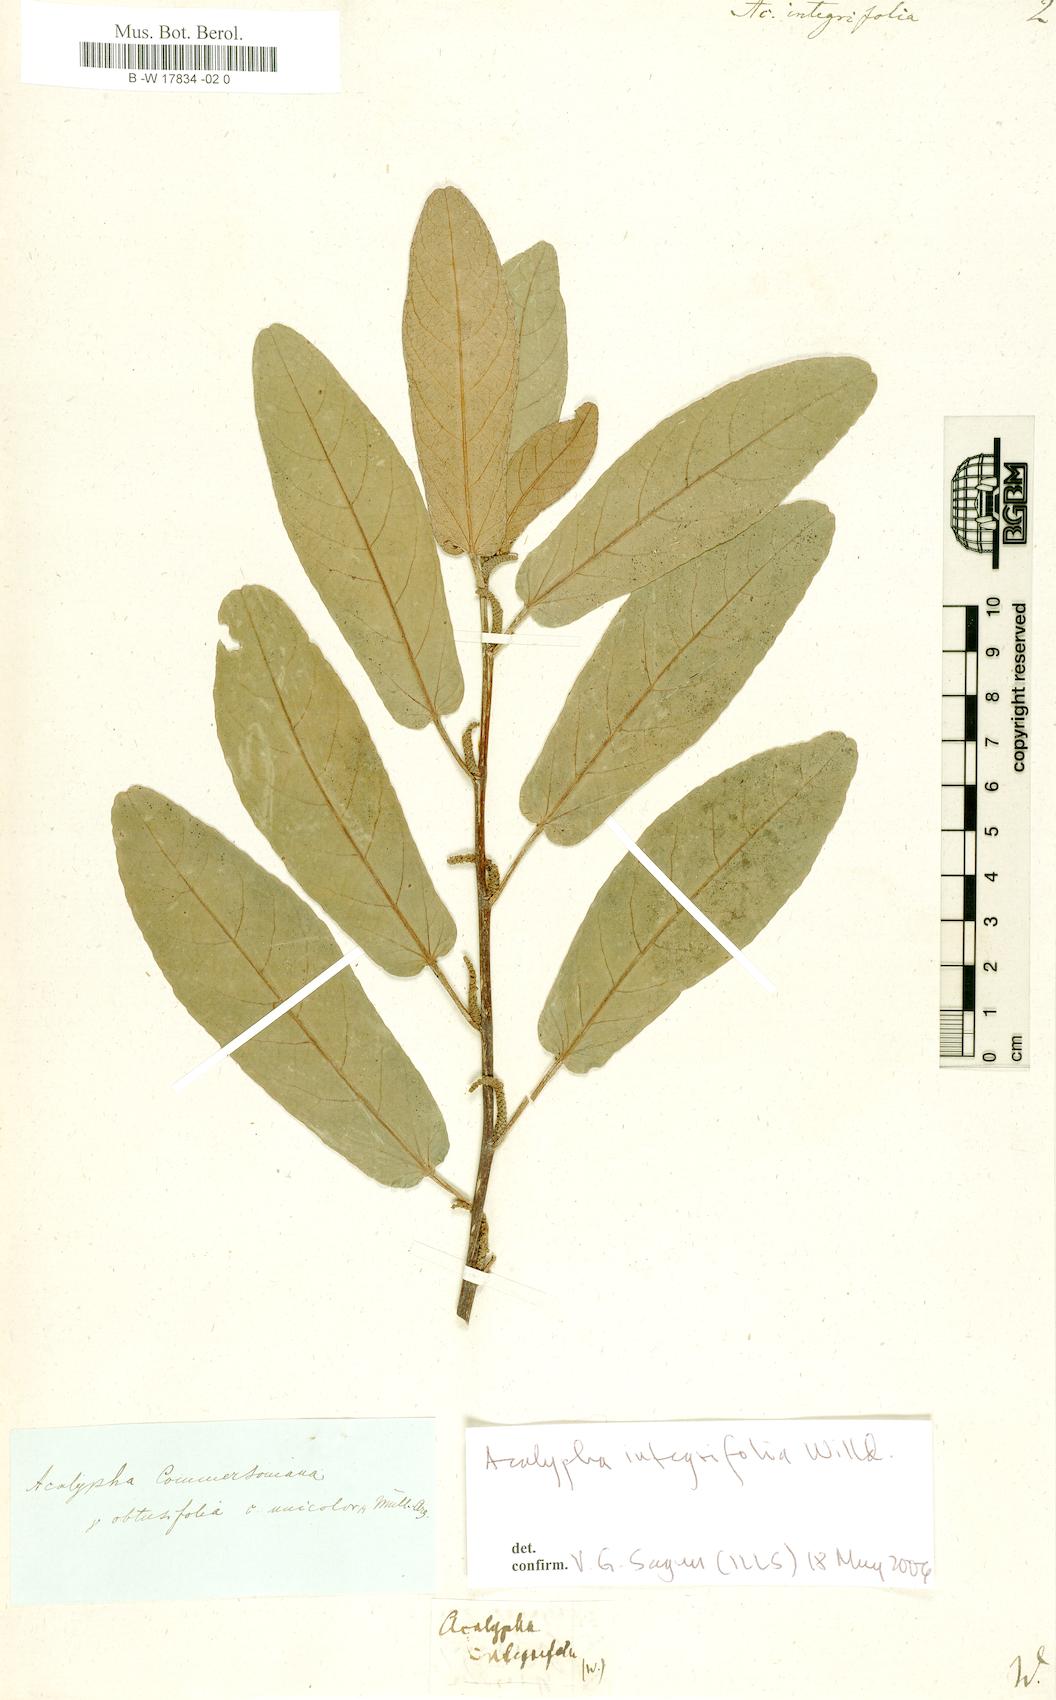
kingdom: Plantae
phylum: Tracheophyta
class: Magnoliopsida
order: Malpighiales
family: Euphorbiaceae
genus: Acalypha
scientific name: Acalypha integrifolia
